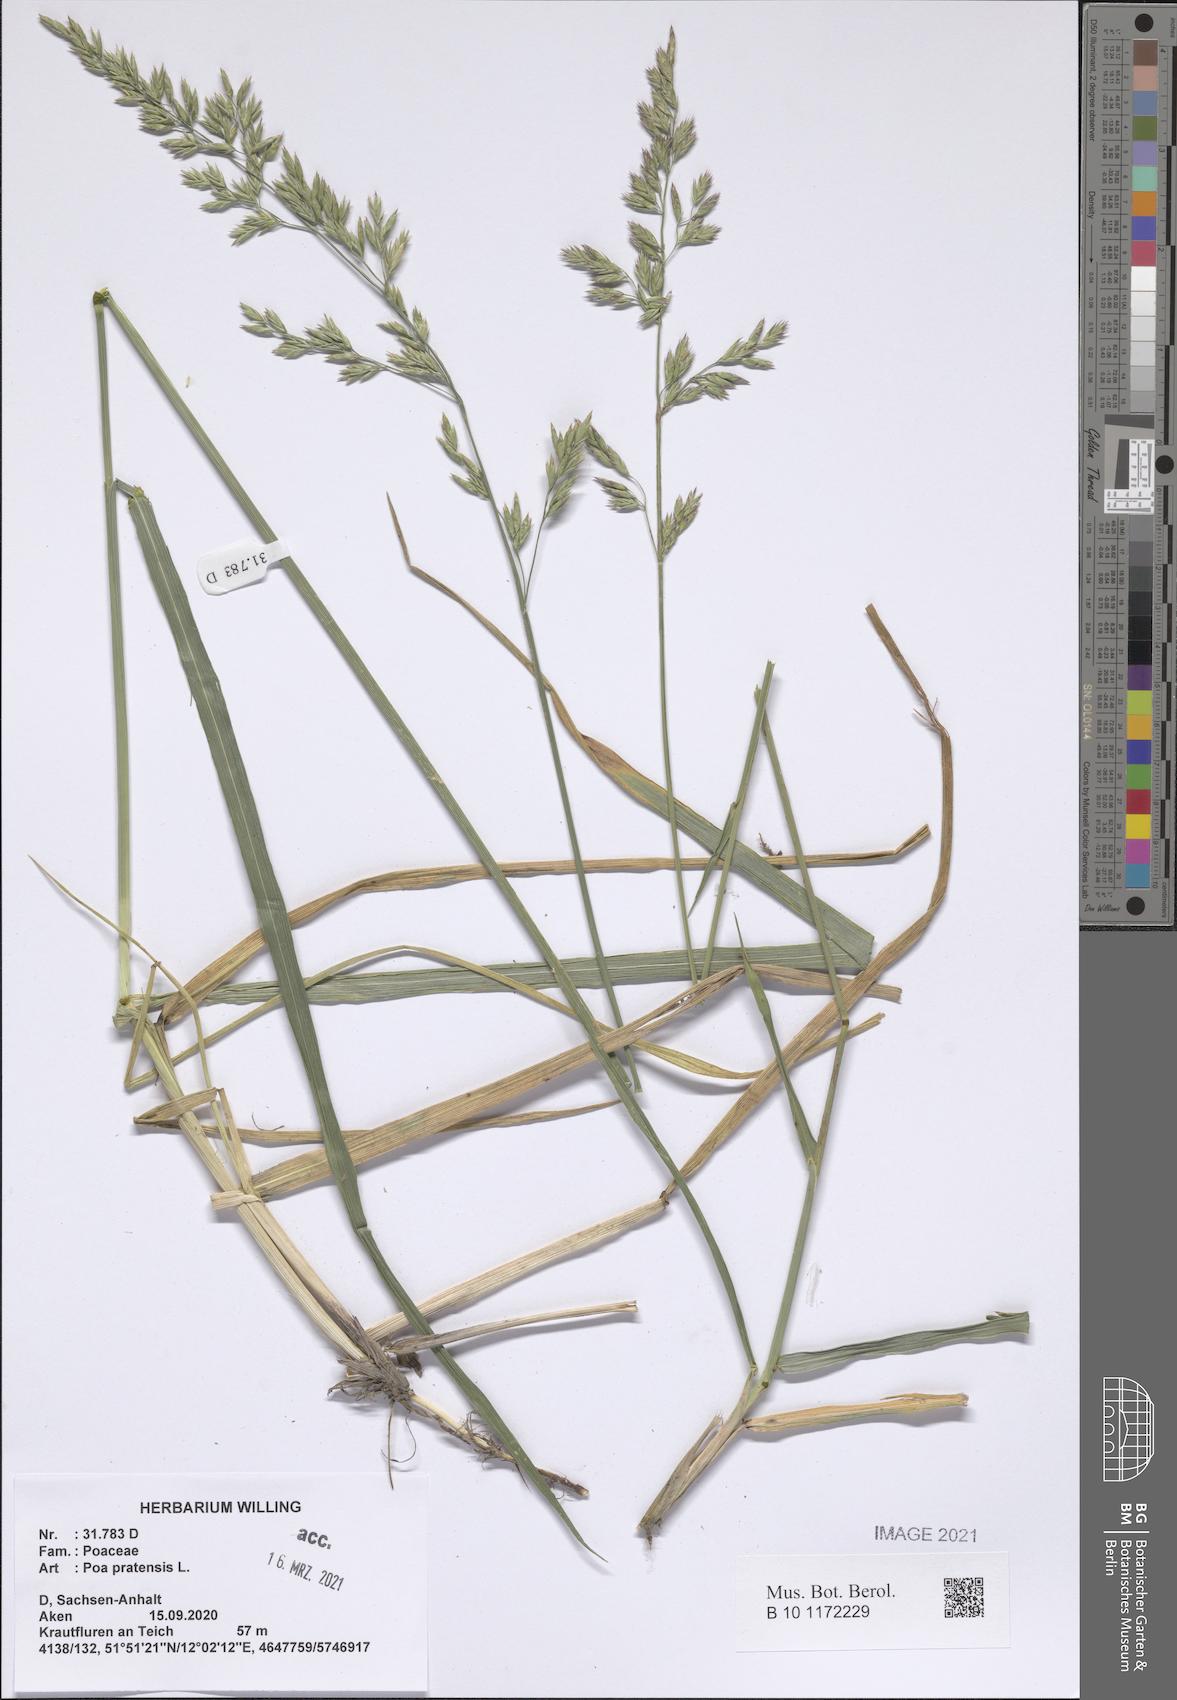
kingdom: Plantae
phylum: Tracheophyta
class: Liliopsida
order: Poales
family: Poaceae
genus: Poa
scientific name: Poa pratensis
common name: Kentucky bluegrass
